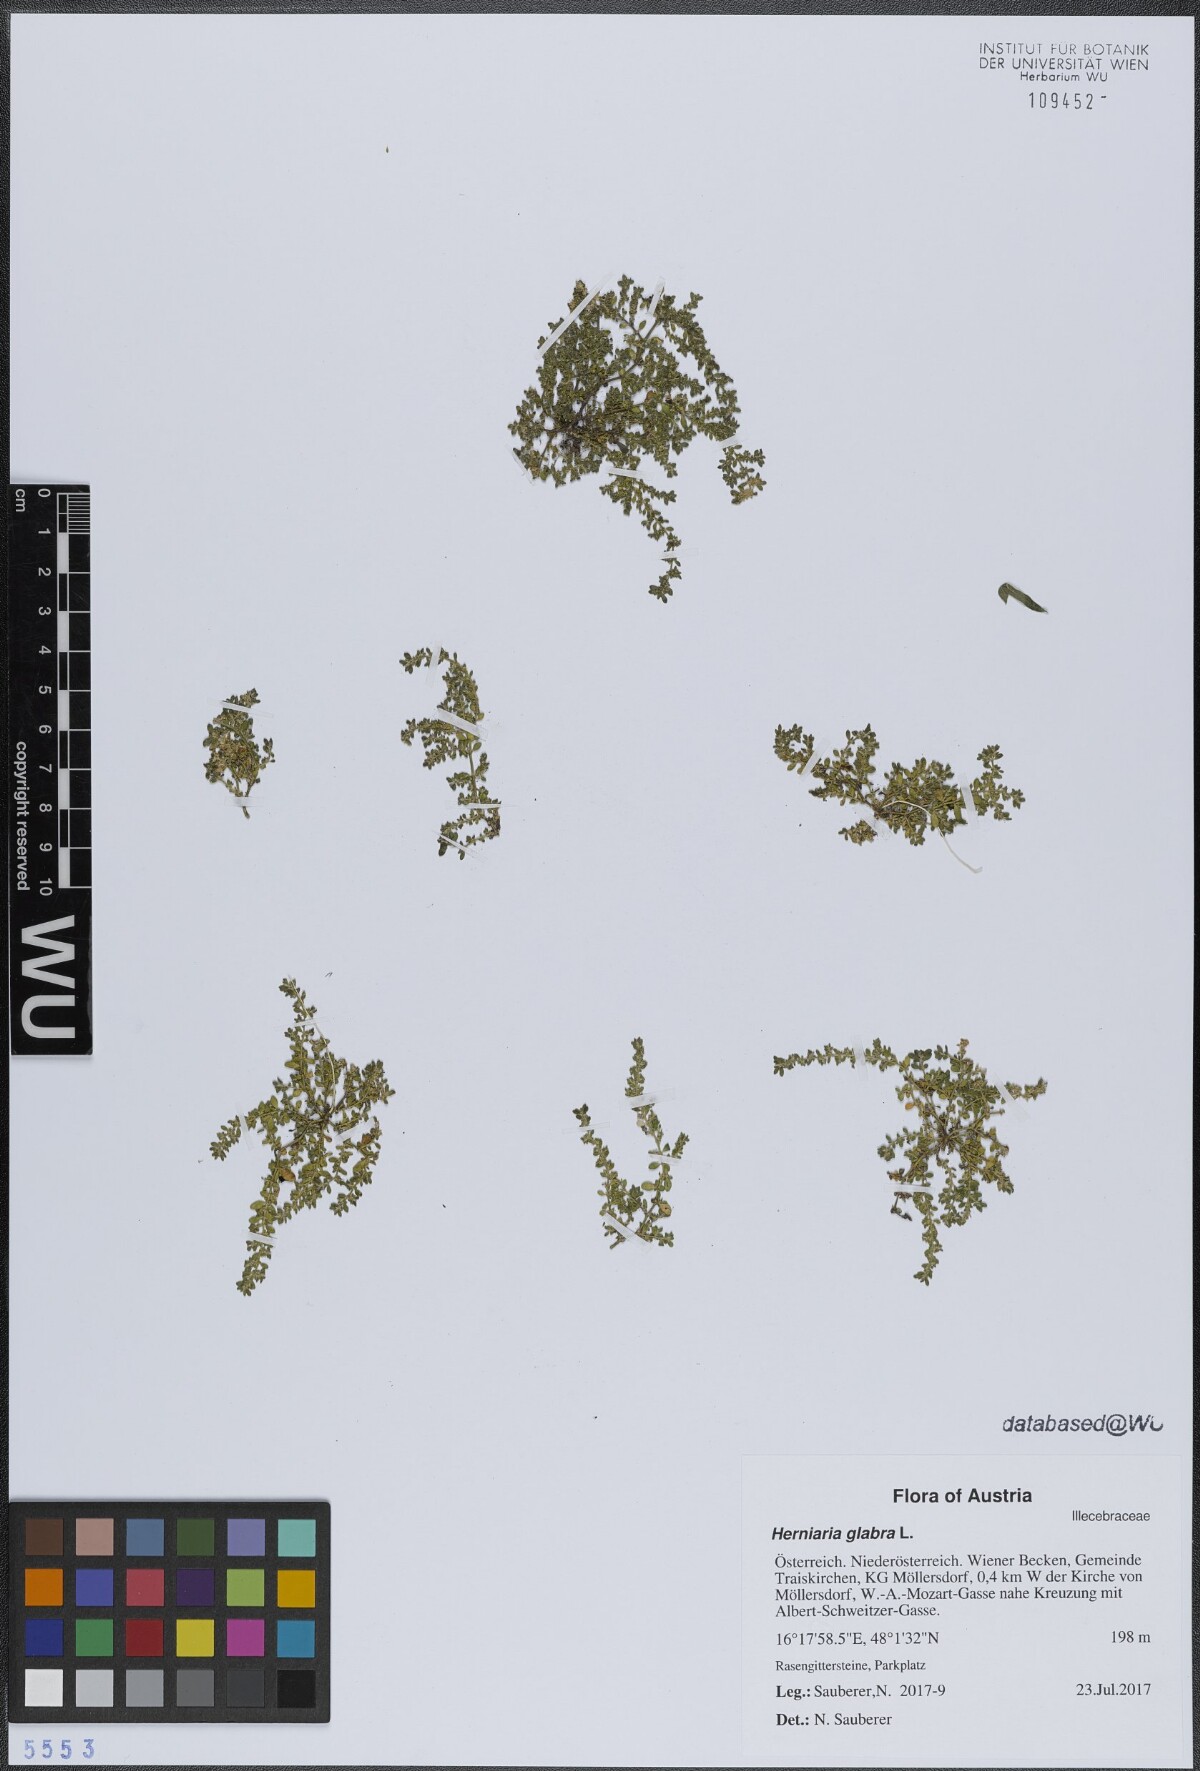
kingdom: Plantae
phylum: Tracheophyta
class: Magnoliopsida
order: Caryophyllales
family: Caryophyllaceae
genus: Herniaria
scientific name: Herniaria glabra
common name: Smooth rupturewort
